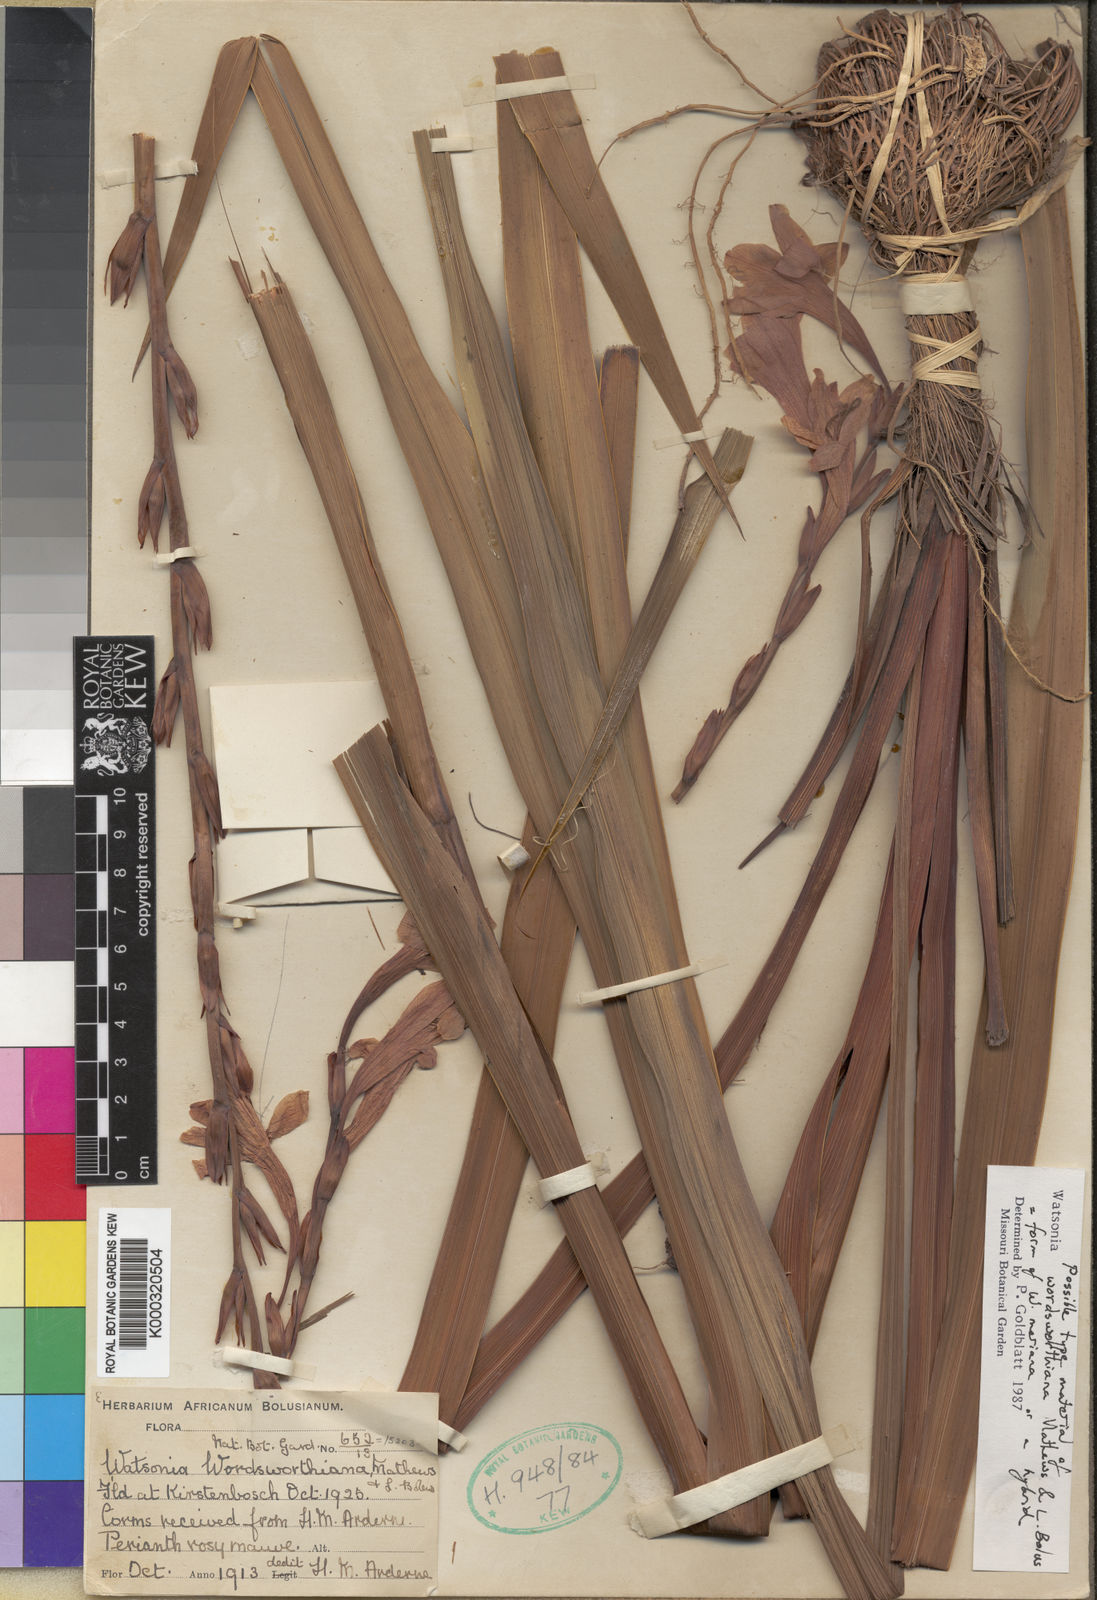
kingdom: Plantae
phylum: Tracheophyta
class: Liliopsida
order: Asparagales
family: Iridaceae
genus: Watsonia
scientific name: Watsonia meriana
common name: Bulbil bugle-lily
